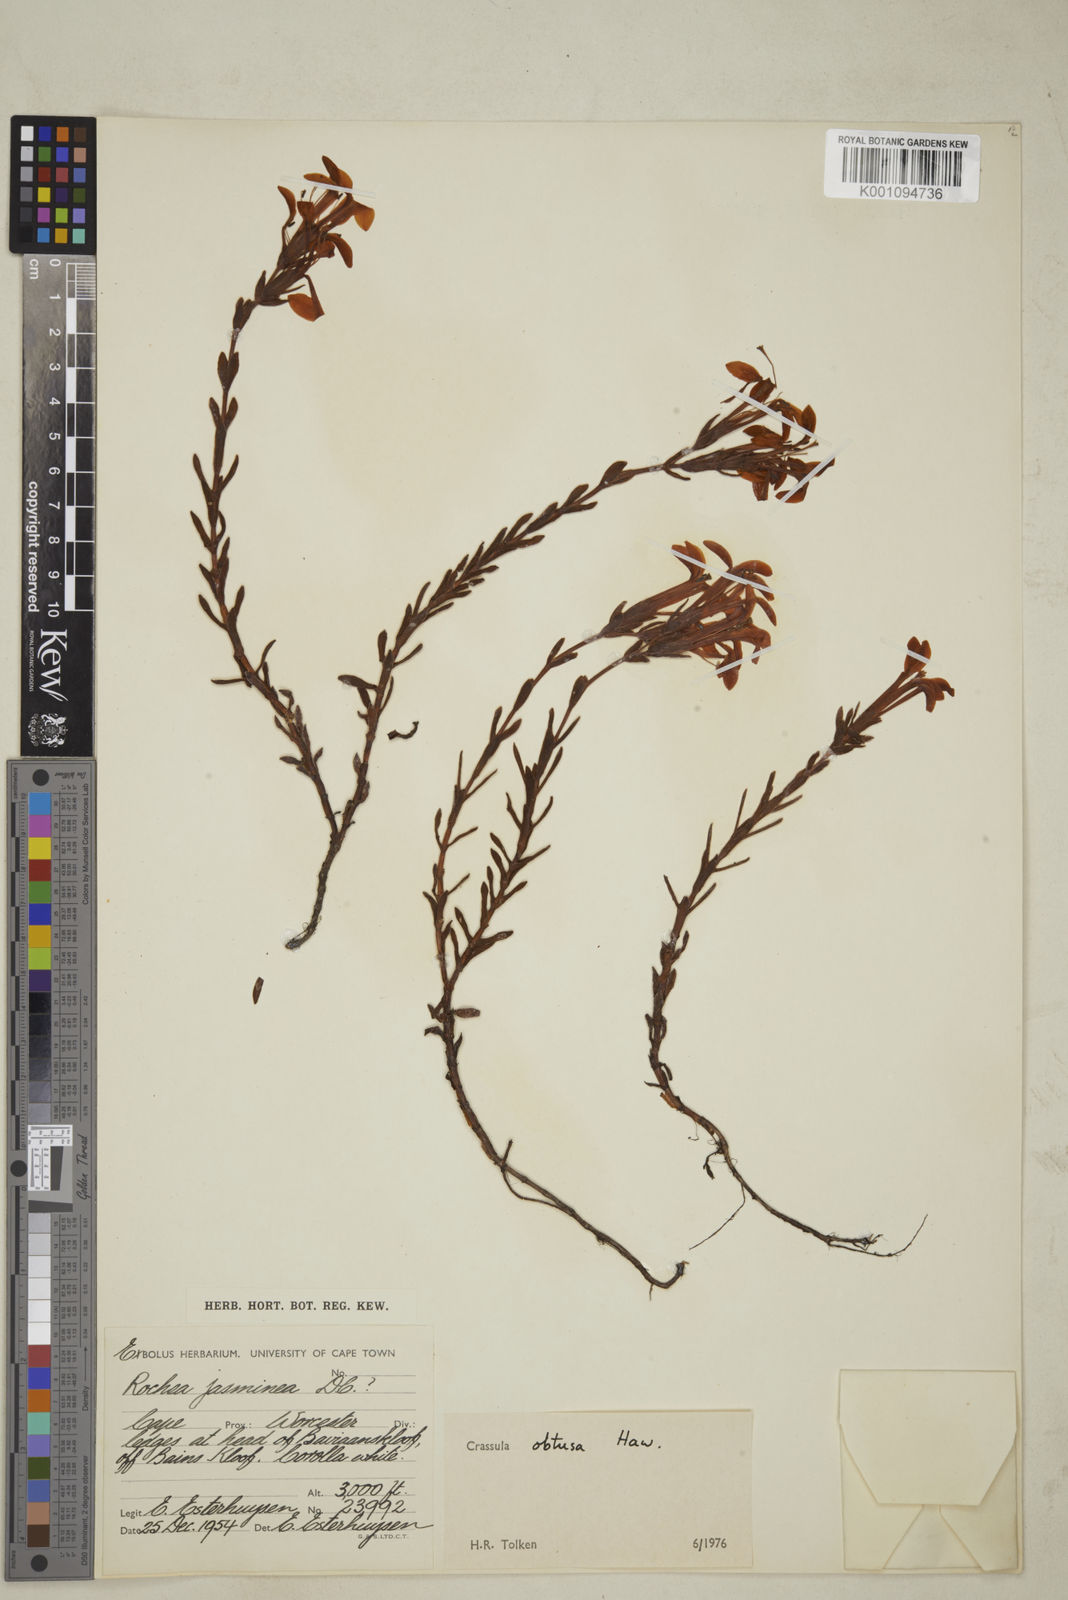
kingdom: Plantae
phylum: Tracheophyta
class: Magnoliopsida
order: Saxifragales
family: Crassulaceae
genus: Crassula
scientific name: Crassula obtusa
